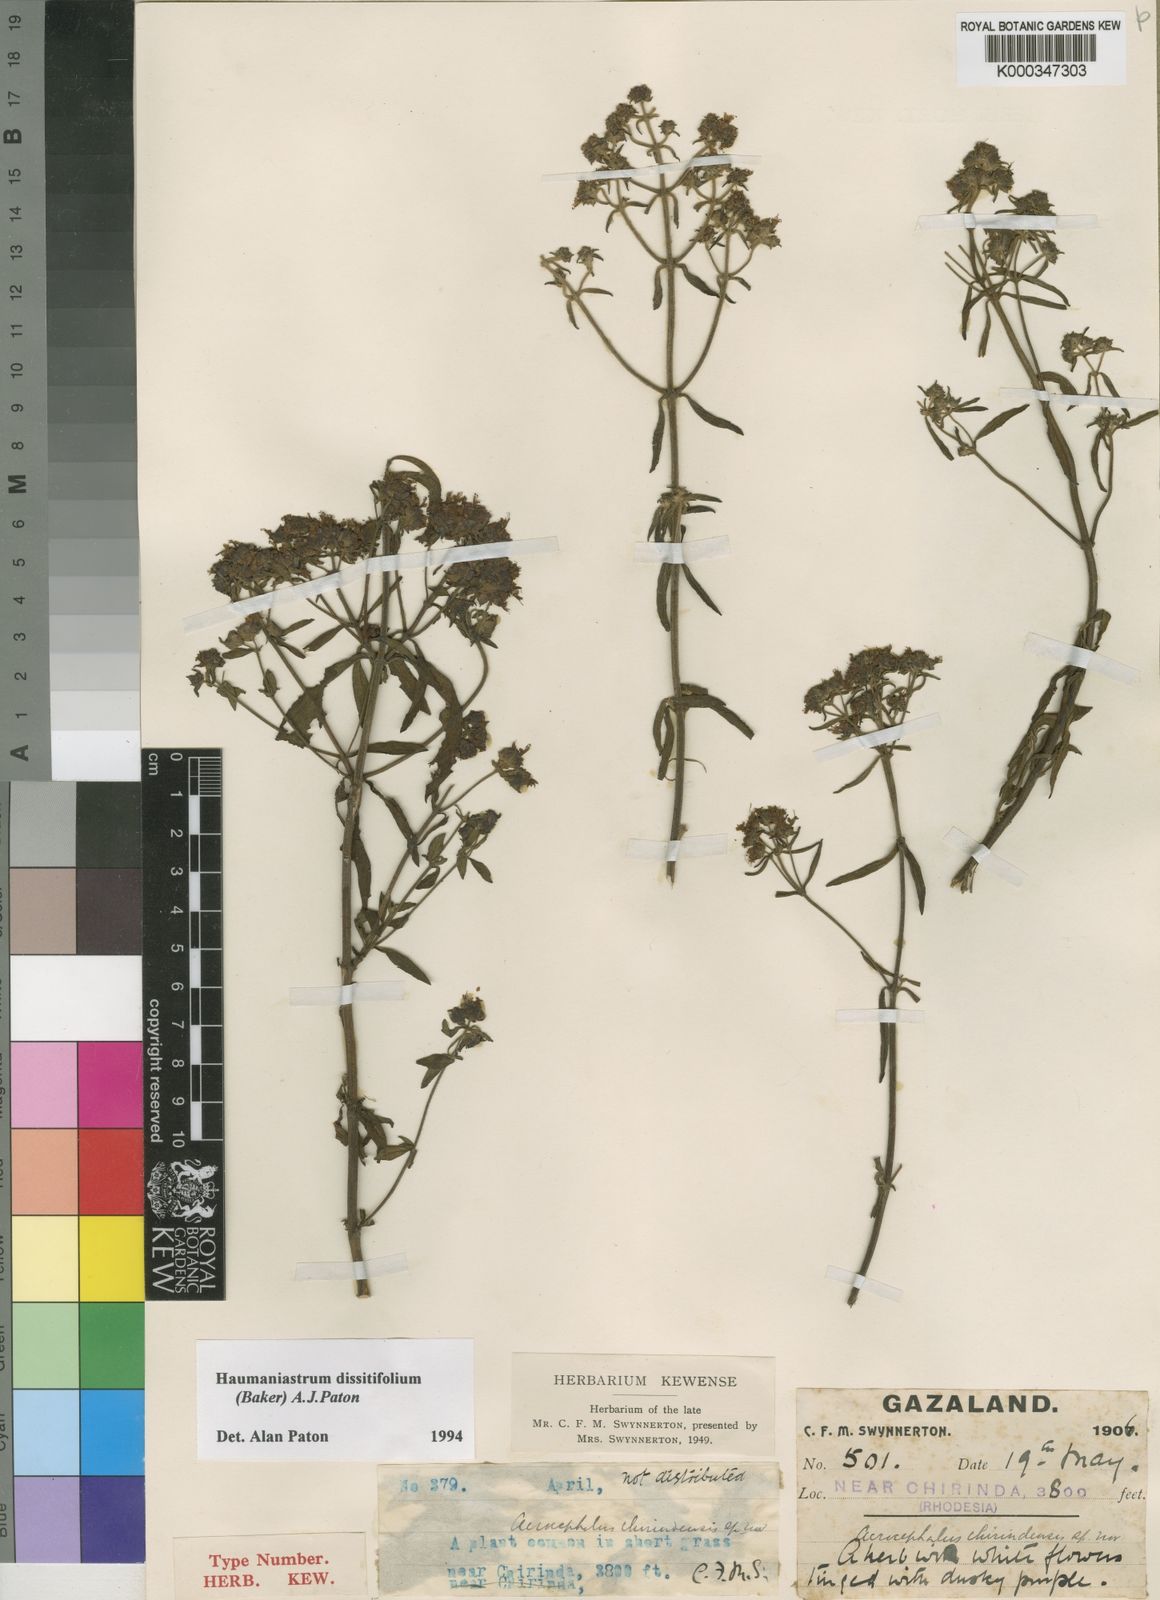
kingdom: Plantae
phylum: Tracheophyta
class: Magnoliopsida
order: Lamiales
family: Lamiaceae
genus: Haumaniastrum
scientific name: Haumaniastrum dissitifolium
